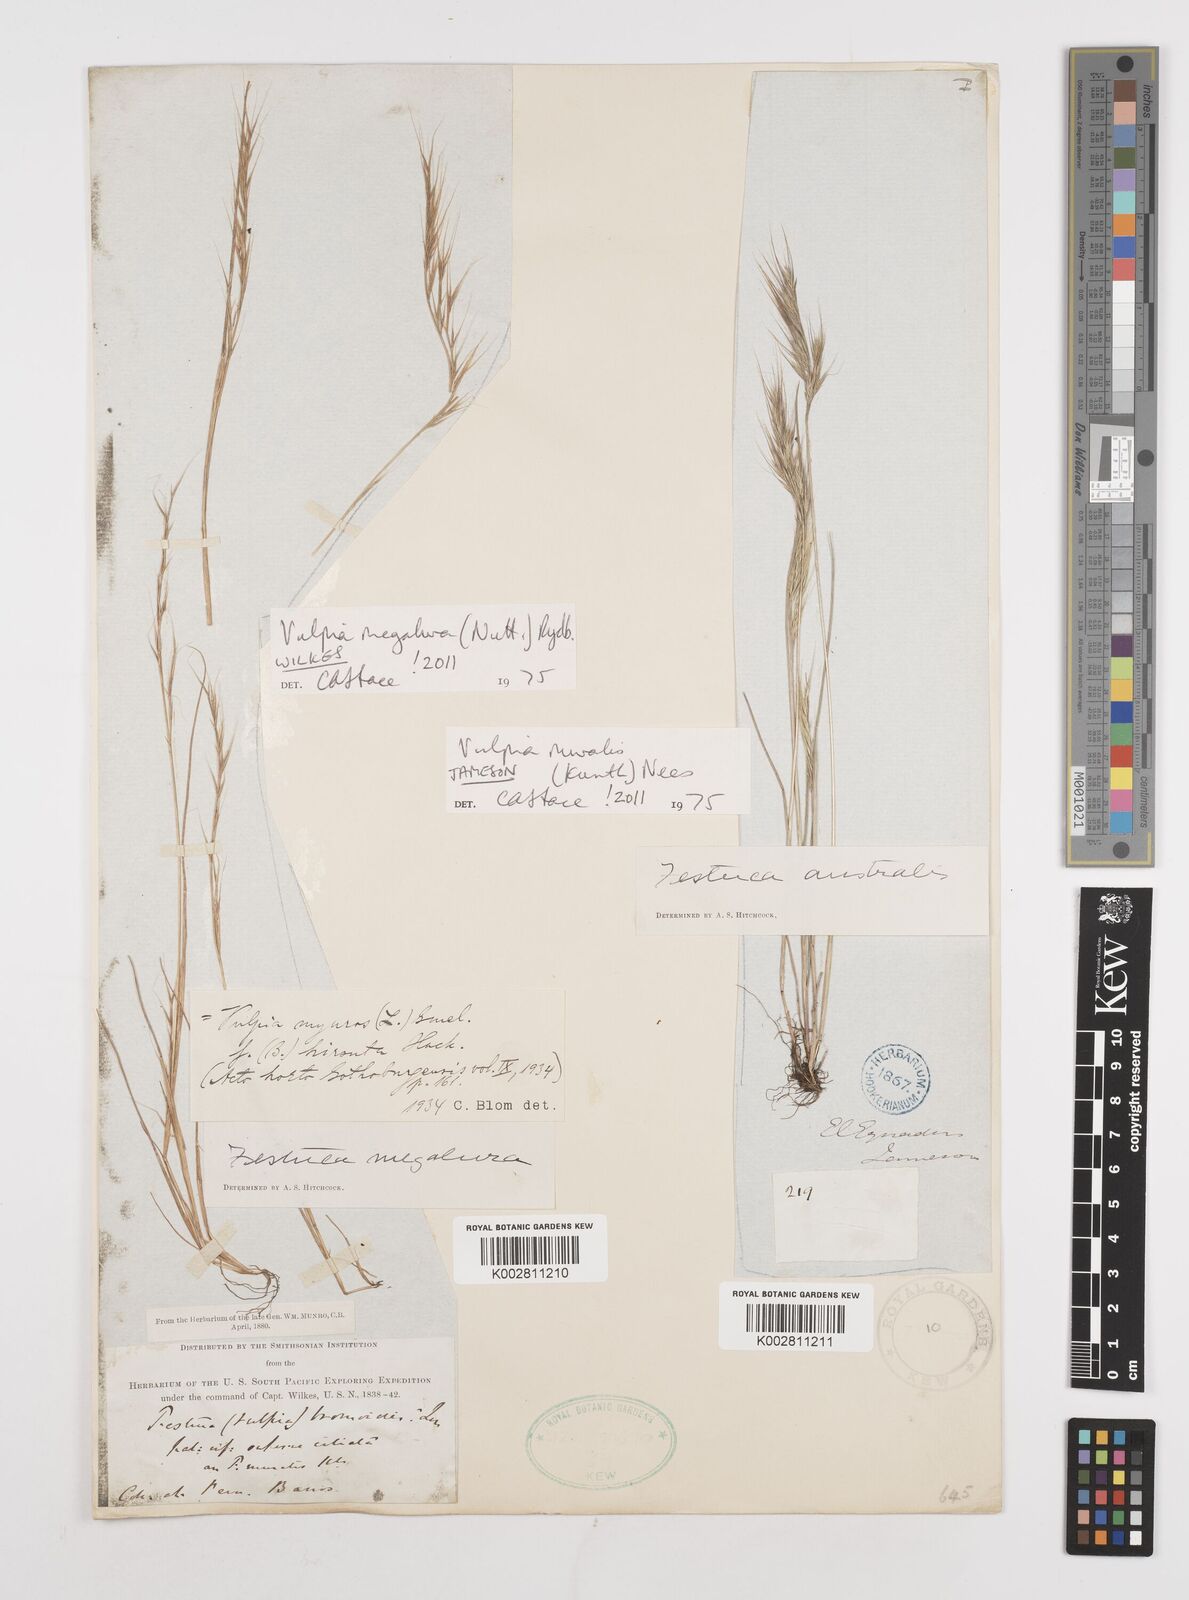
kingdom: Plantae
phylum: Tracheophyta
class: Liliopsida
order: Poales
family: Poaceae
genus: Festuca
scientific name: Festuca
